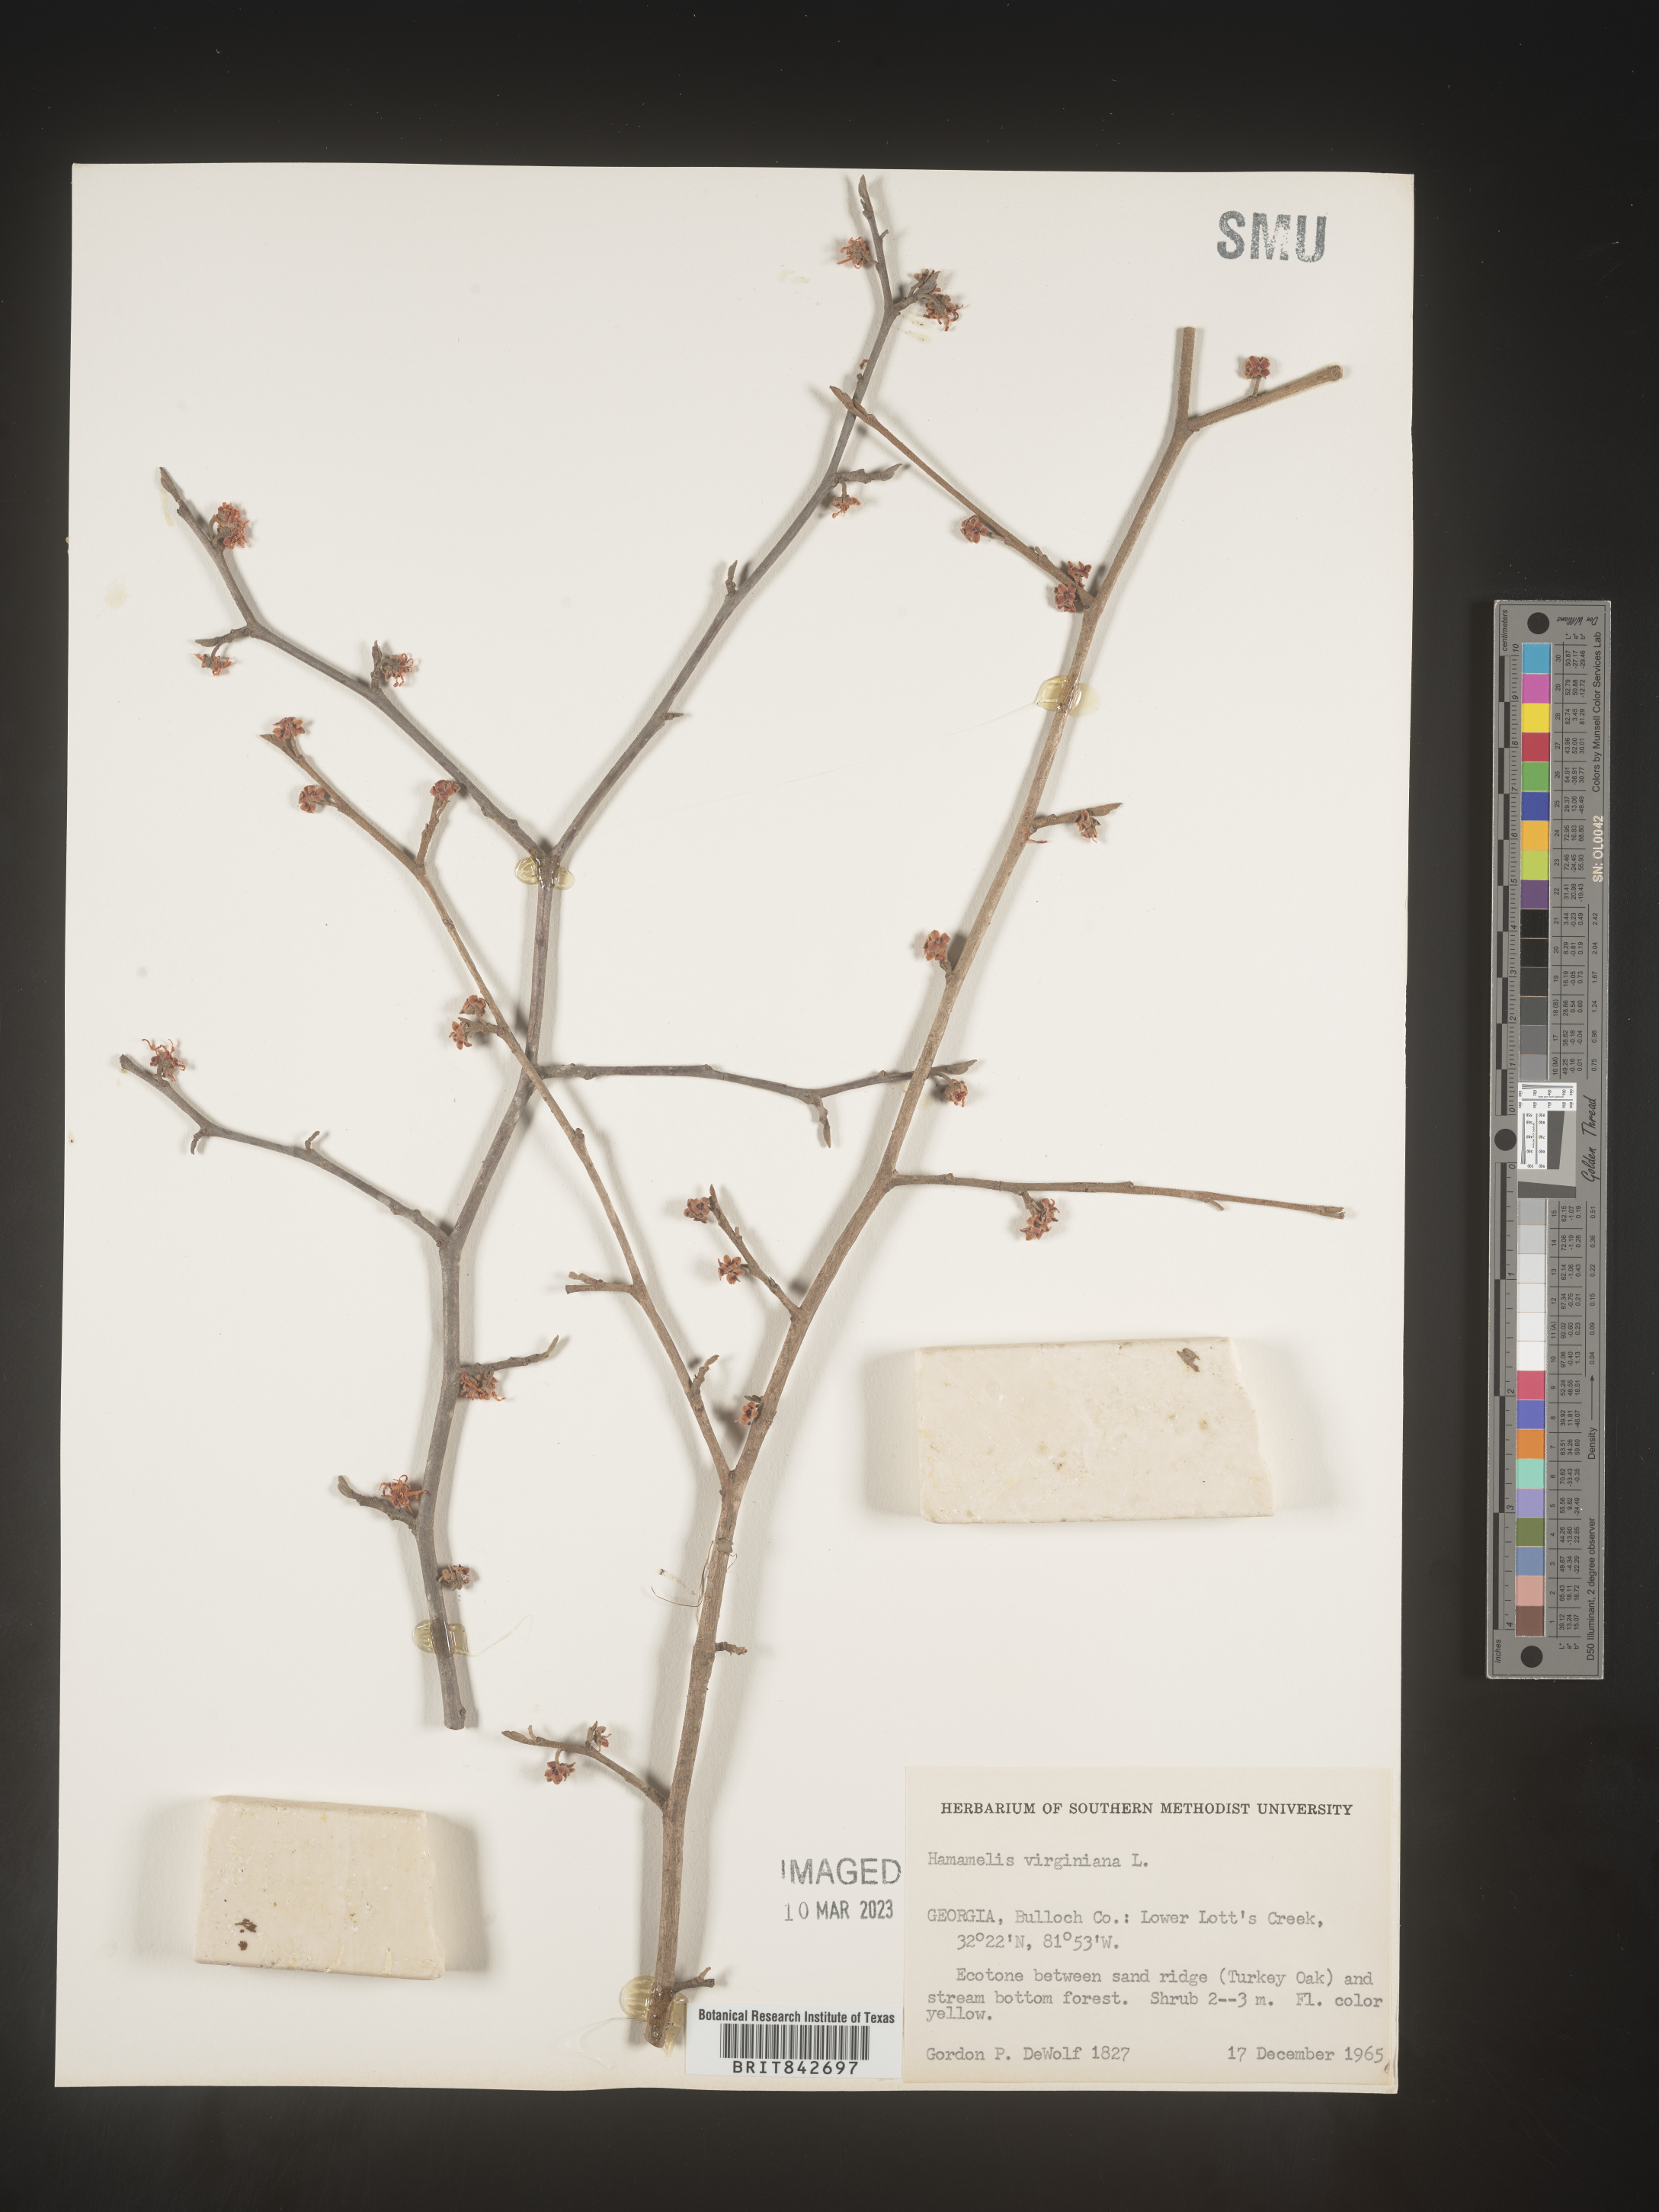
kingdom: Plantae
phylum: Tracheophyta
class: Magnoliopsida
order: Saxifragales
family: Hamamelidaceae
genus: Hamamelis
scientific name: Hamamelis virginiana
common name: Witch-hazel
